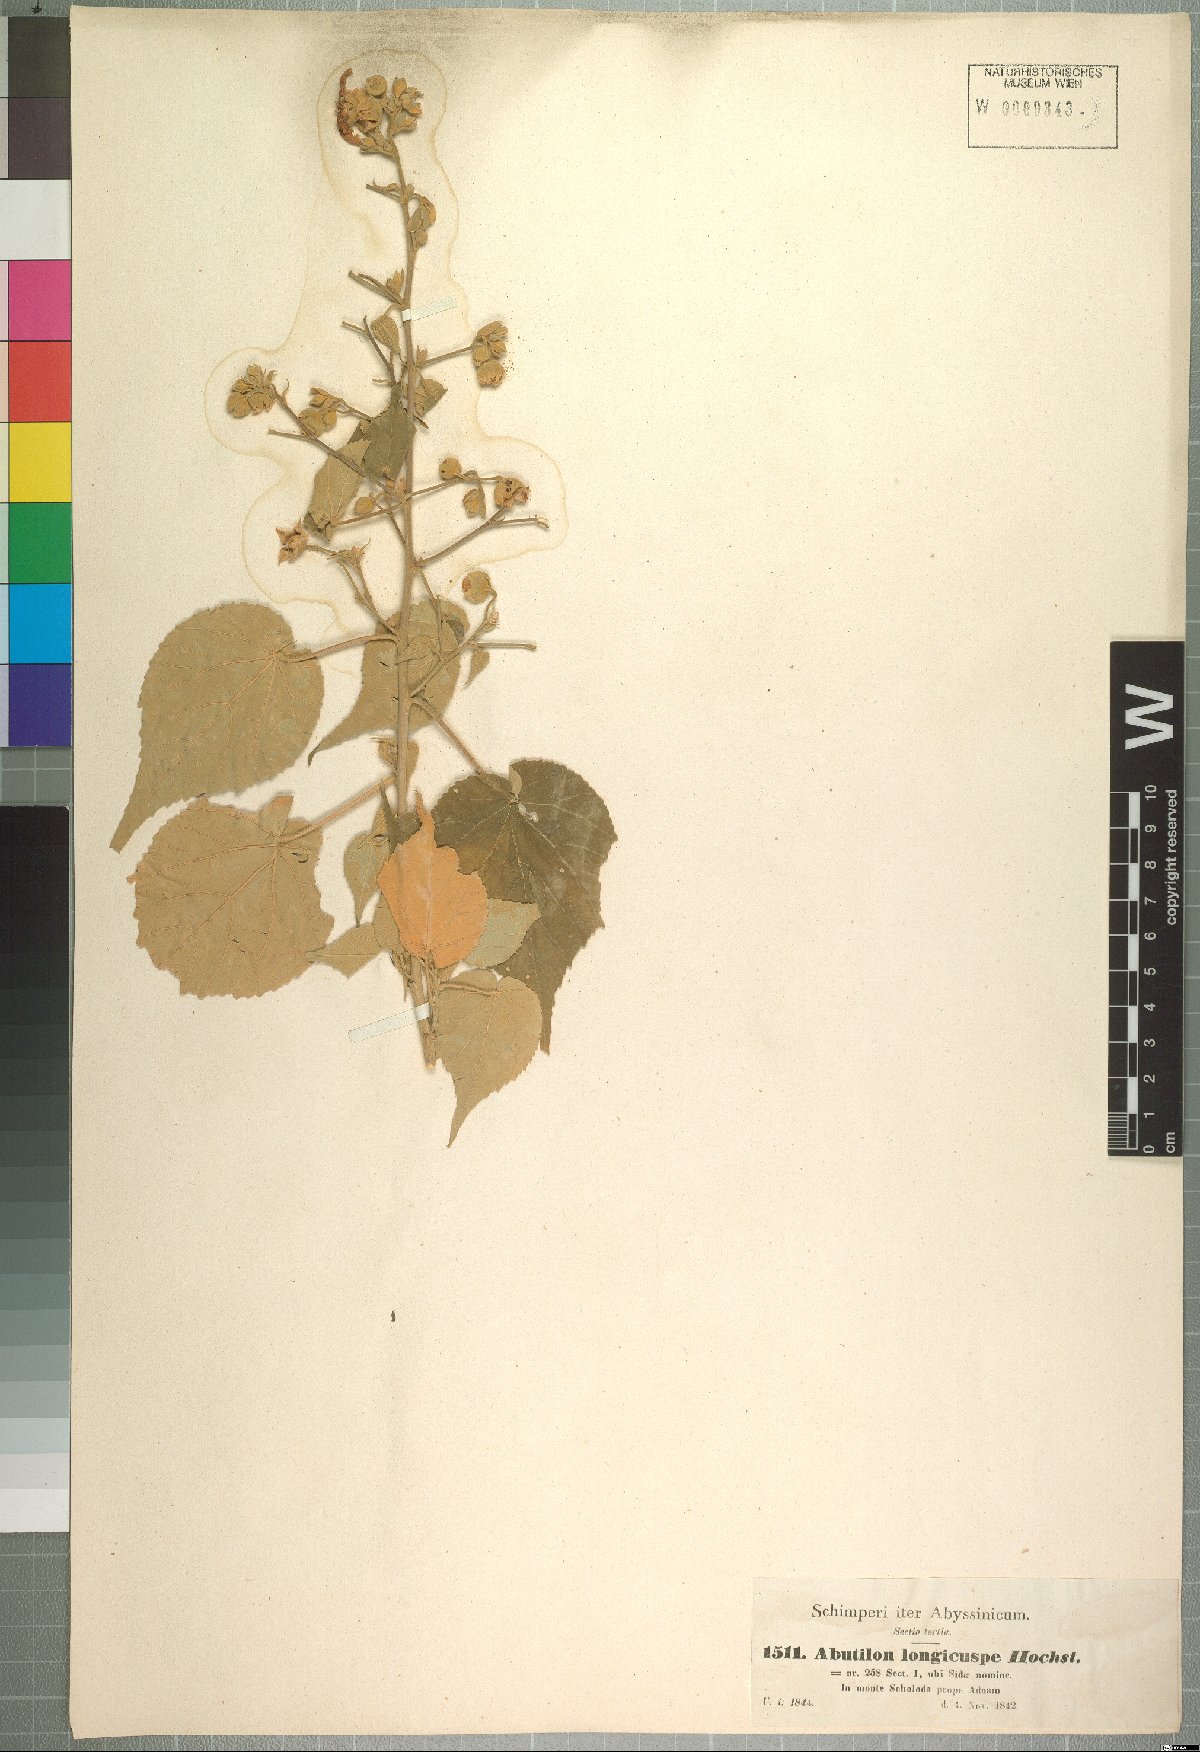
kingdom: Plantae
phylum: Tracheophyta
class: Magnoliopsida
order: Malvales
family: Malvaceae
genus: Abutilon
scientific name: Abutilon longicuspe
